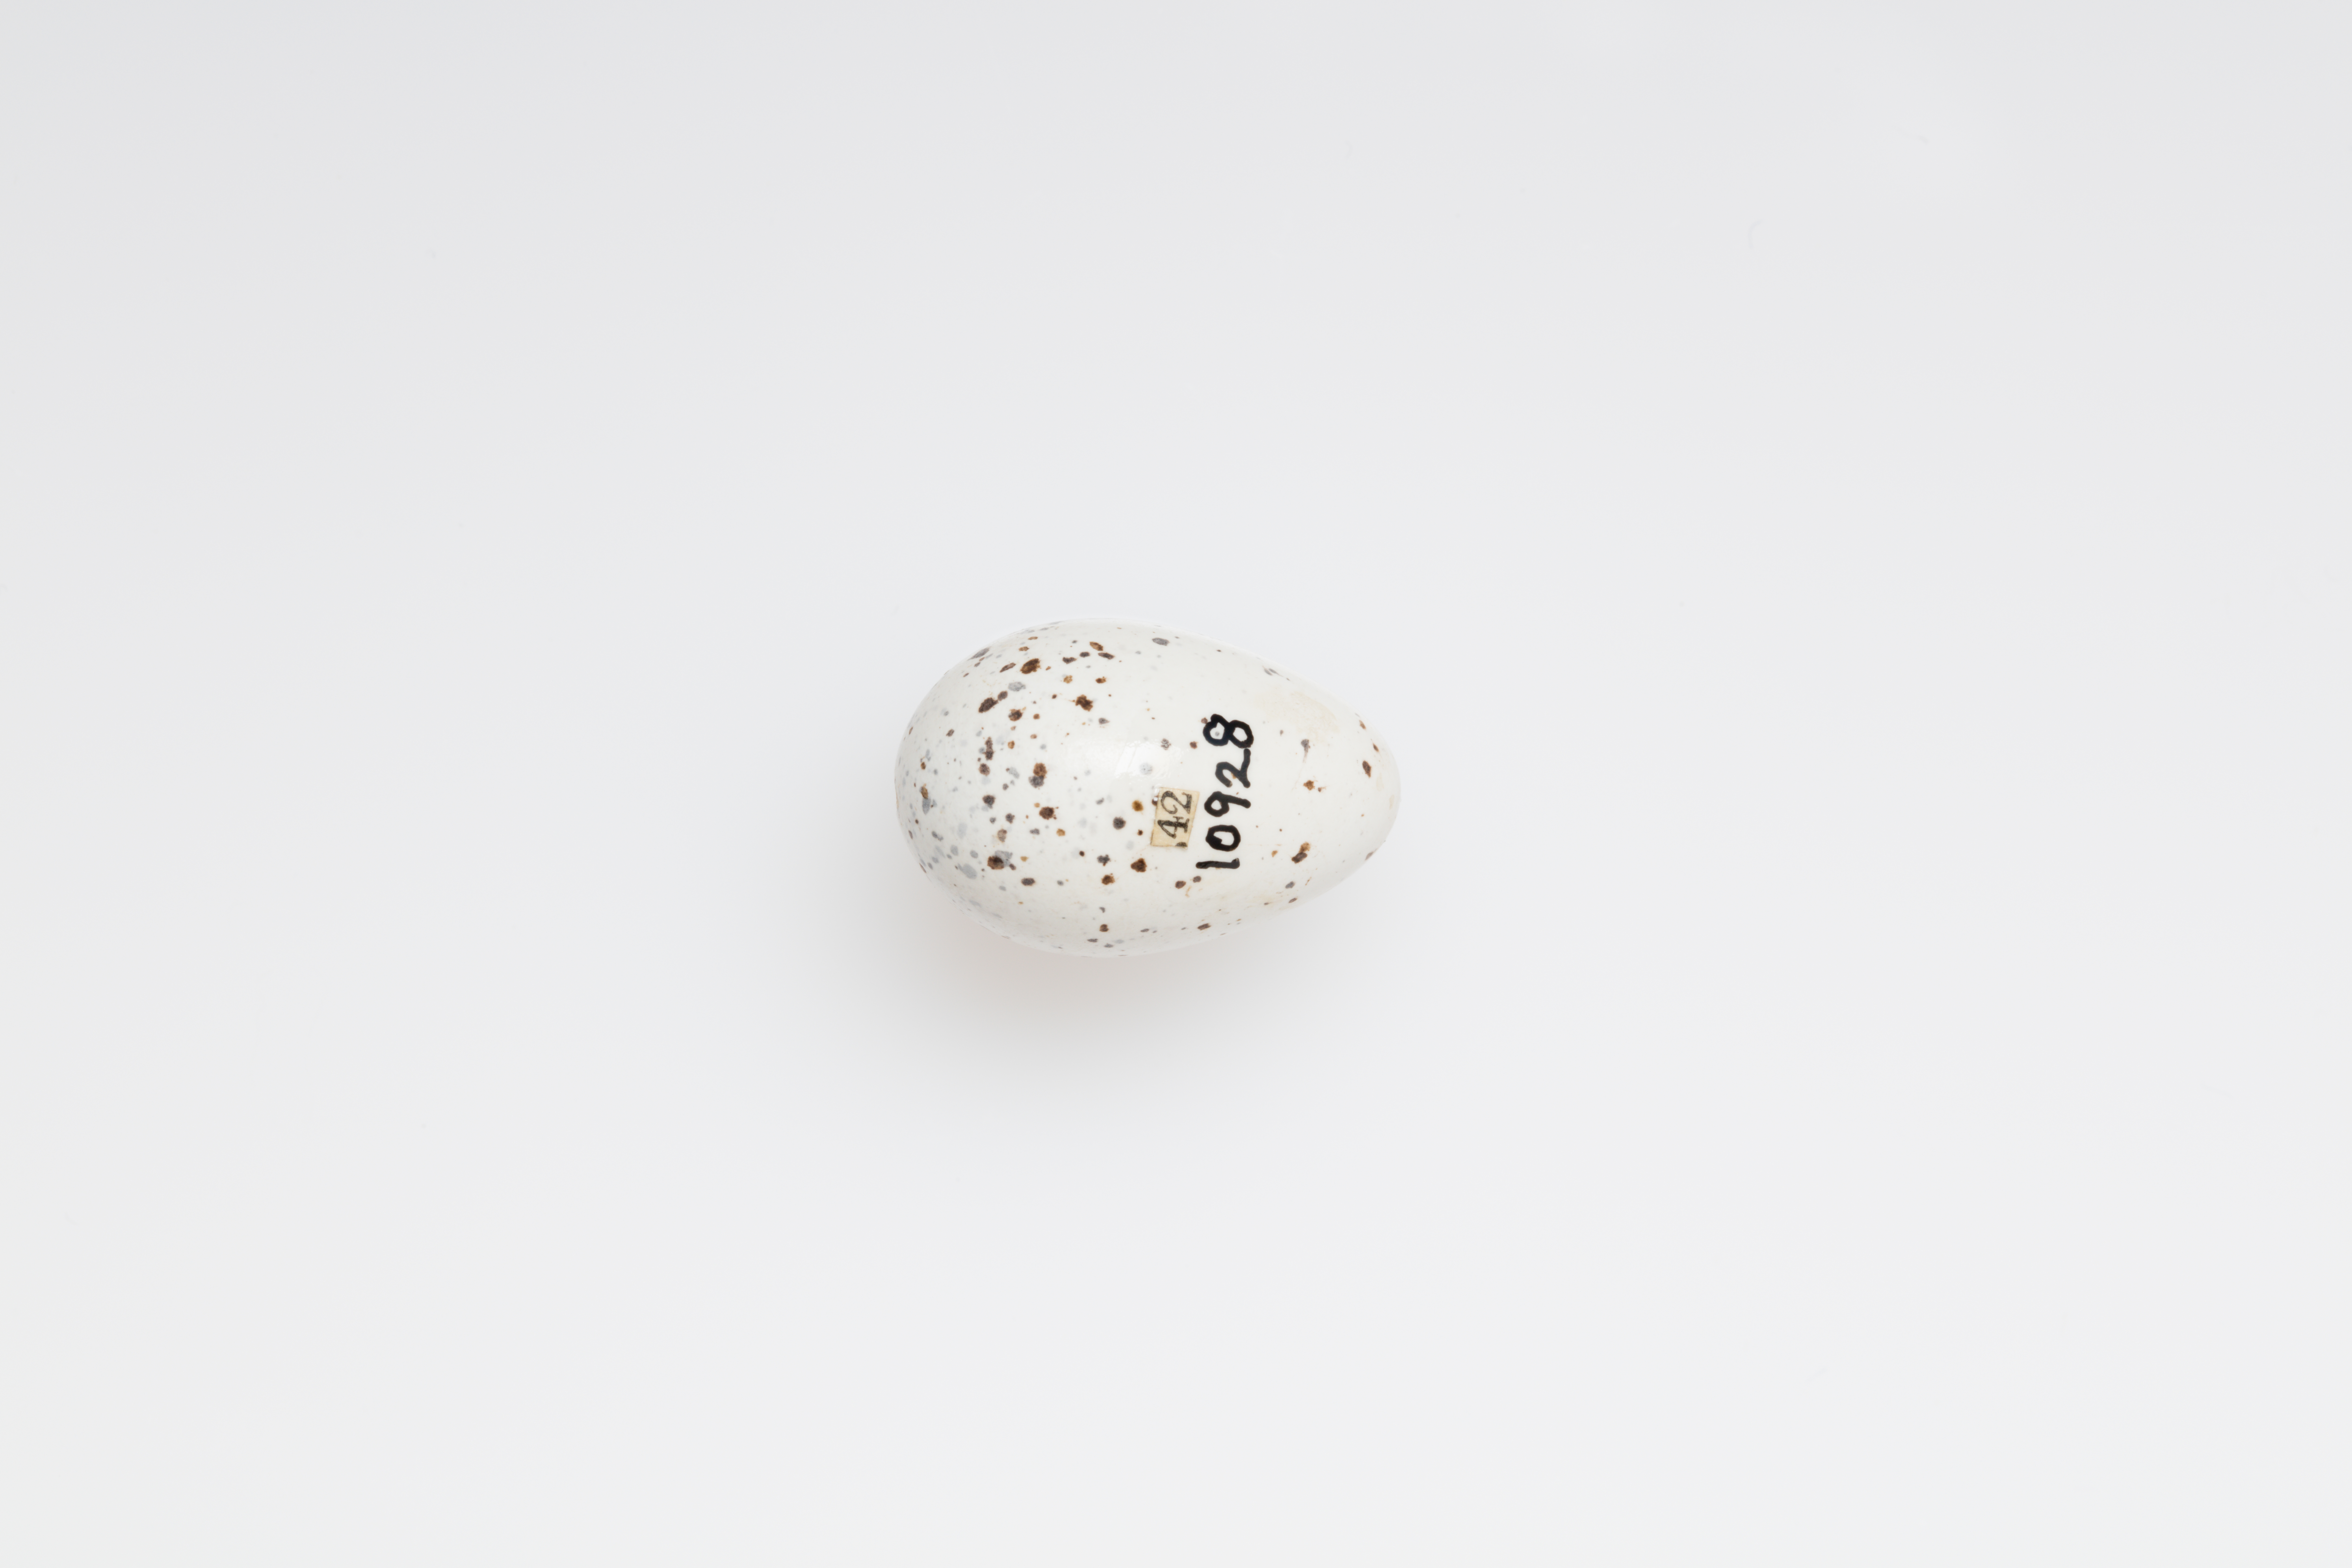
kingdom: Animalia
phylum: Chordata
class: Aves
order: Passeriformes
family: Hirundinidae
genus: Hirundo
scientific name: Hirundo rustica
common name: Barn swallow
